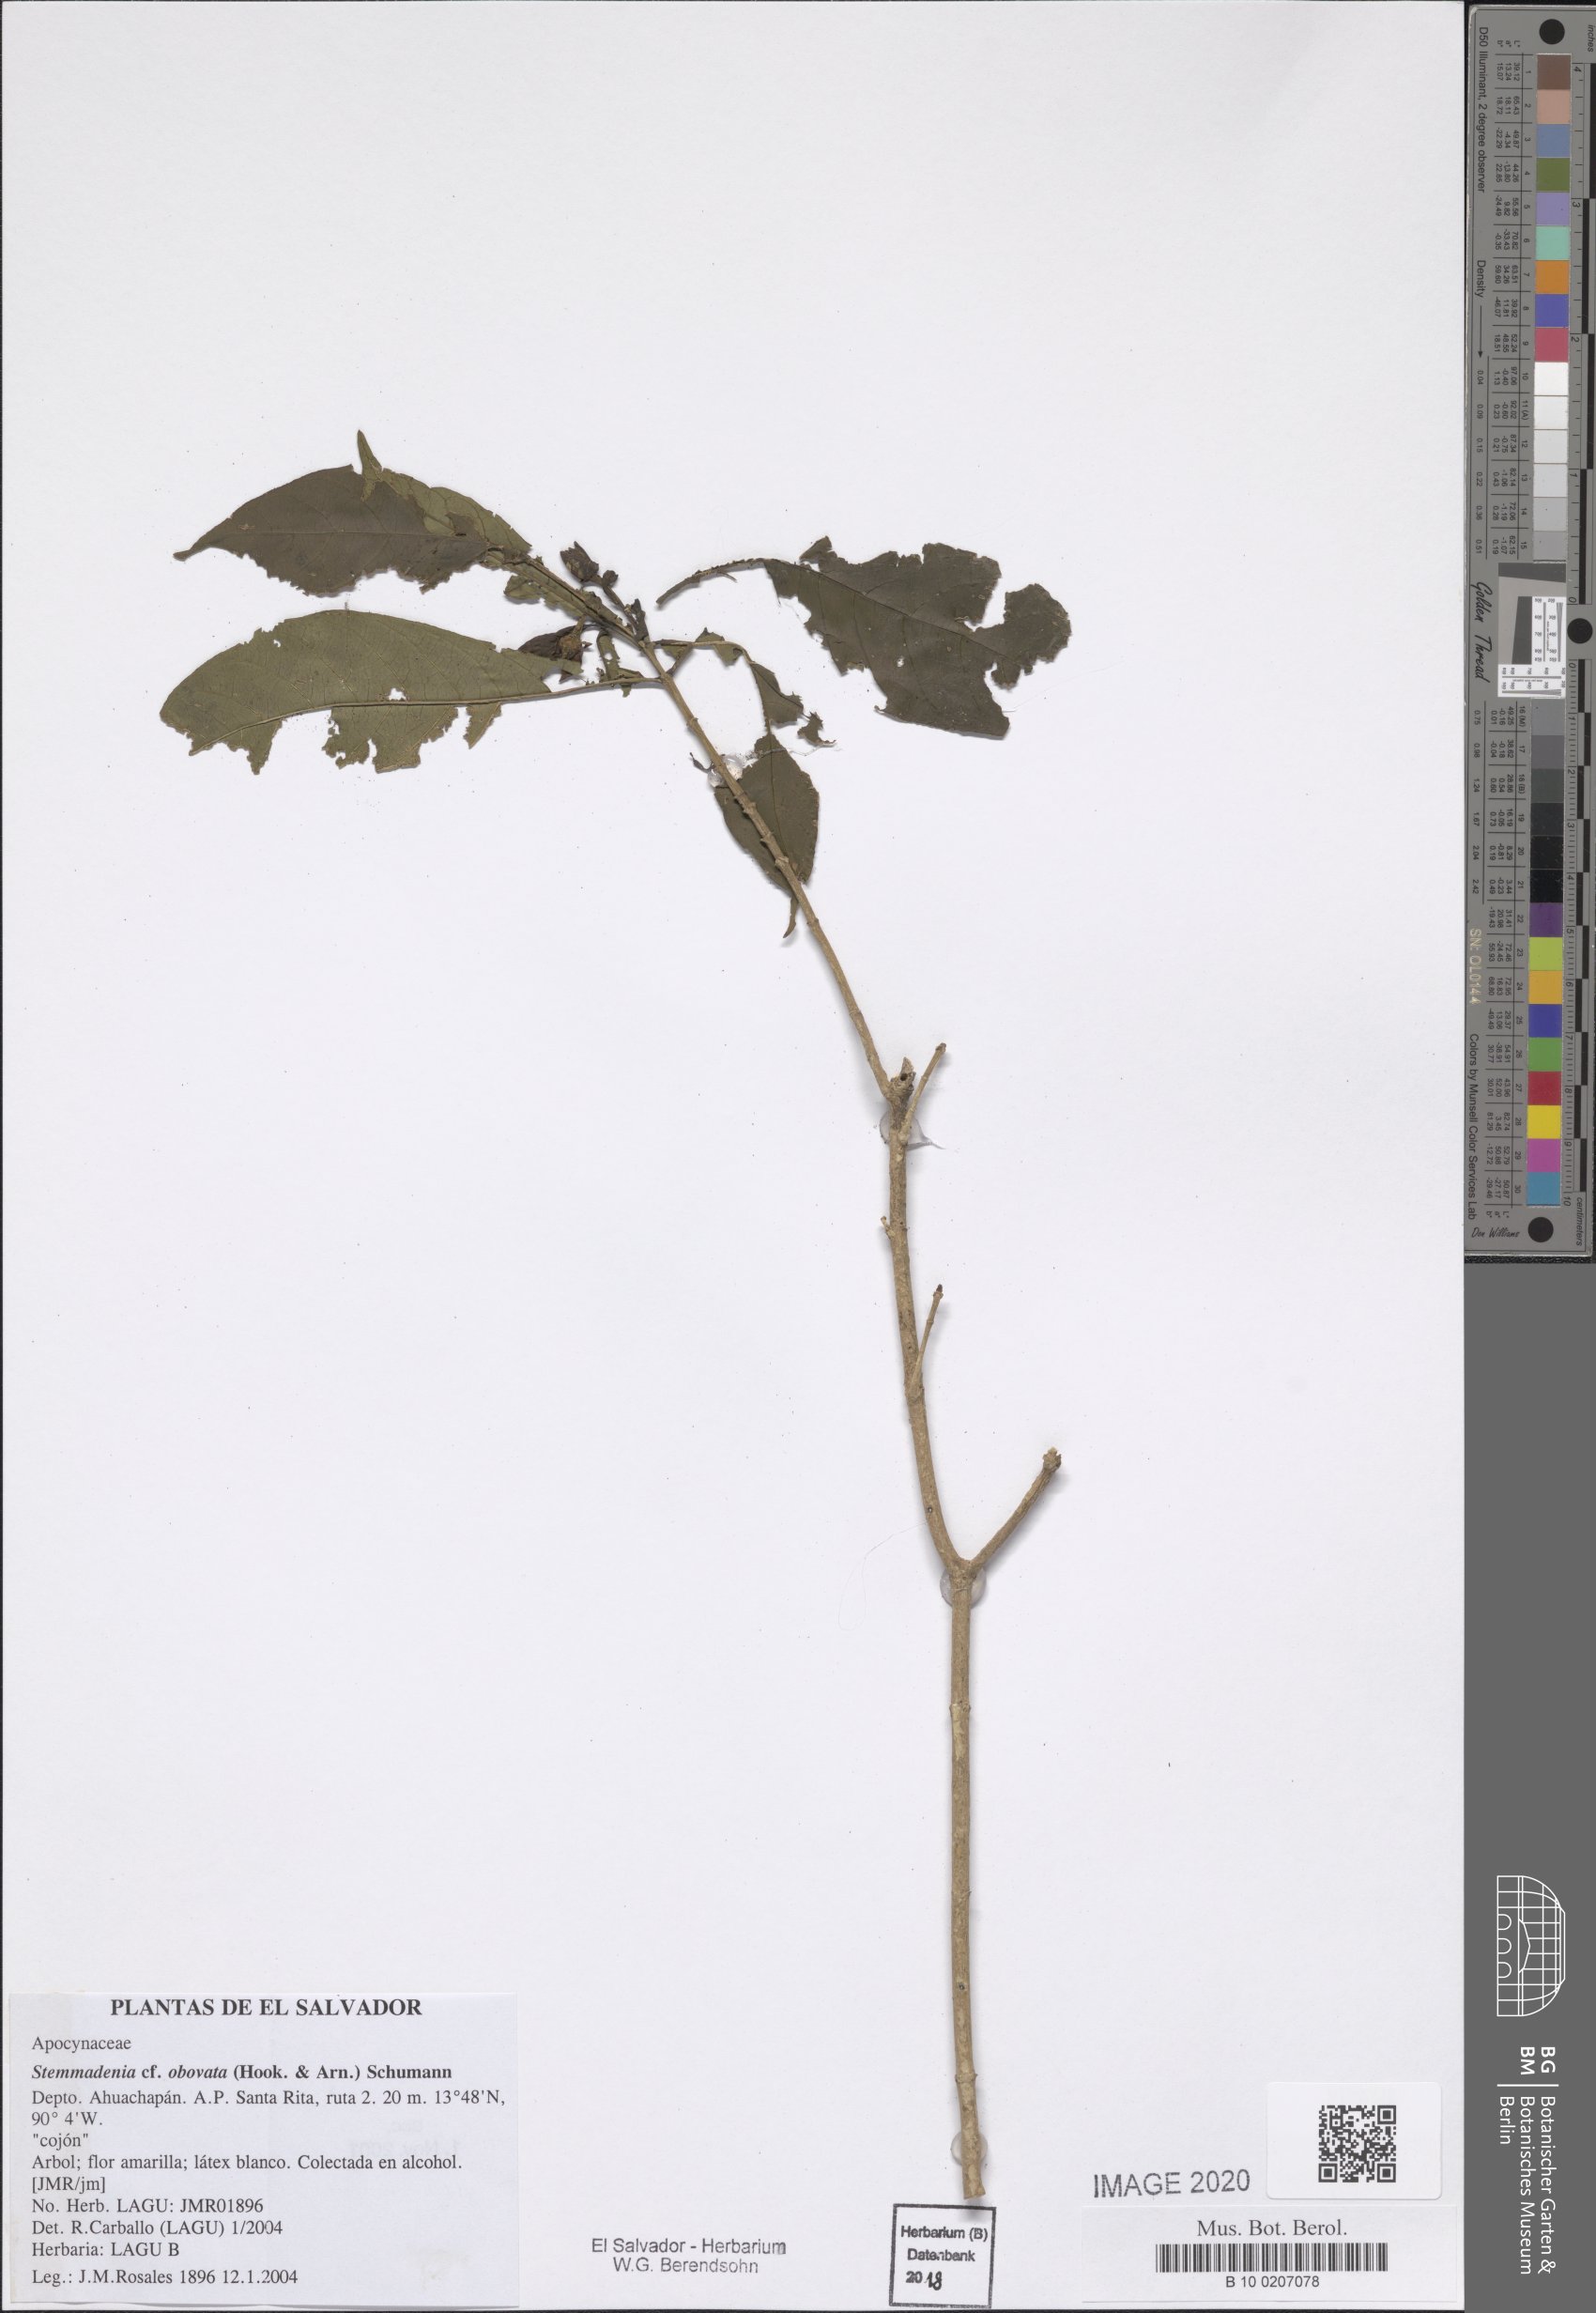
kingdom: Plantae
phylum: Tracheophyta
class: Magnoliopsida
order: Gentianales
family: Apocynaceae
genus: Tabernaemontana
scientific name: Tabernaemontana glabra
